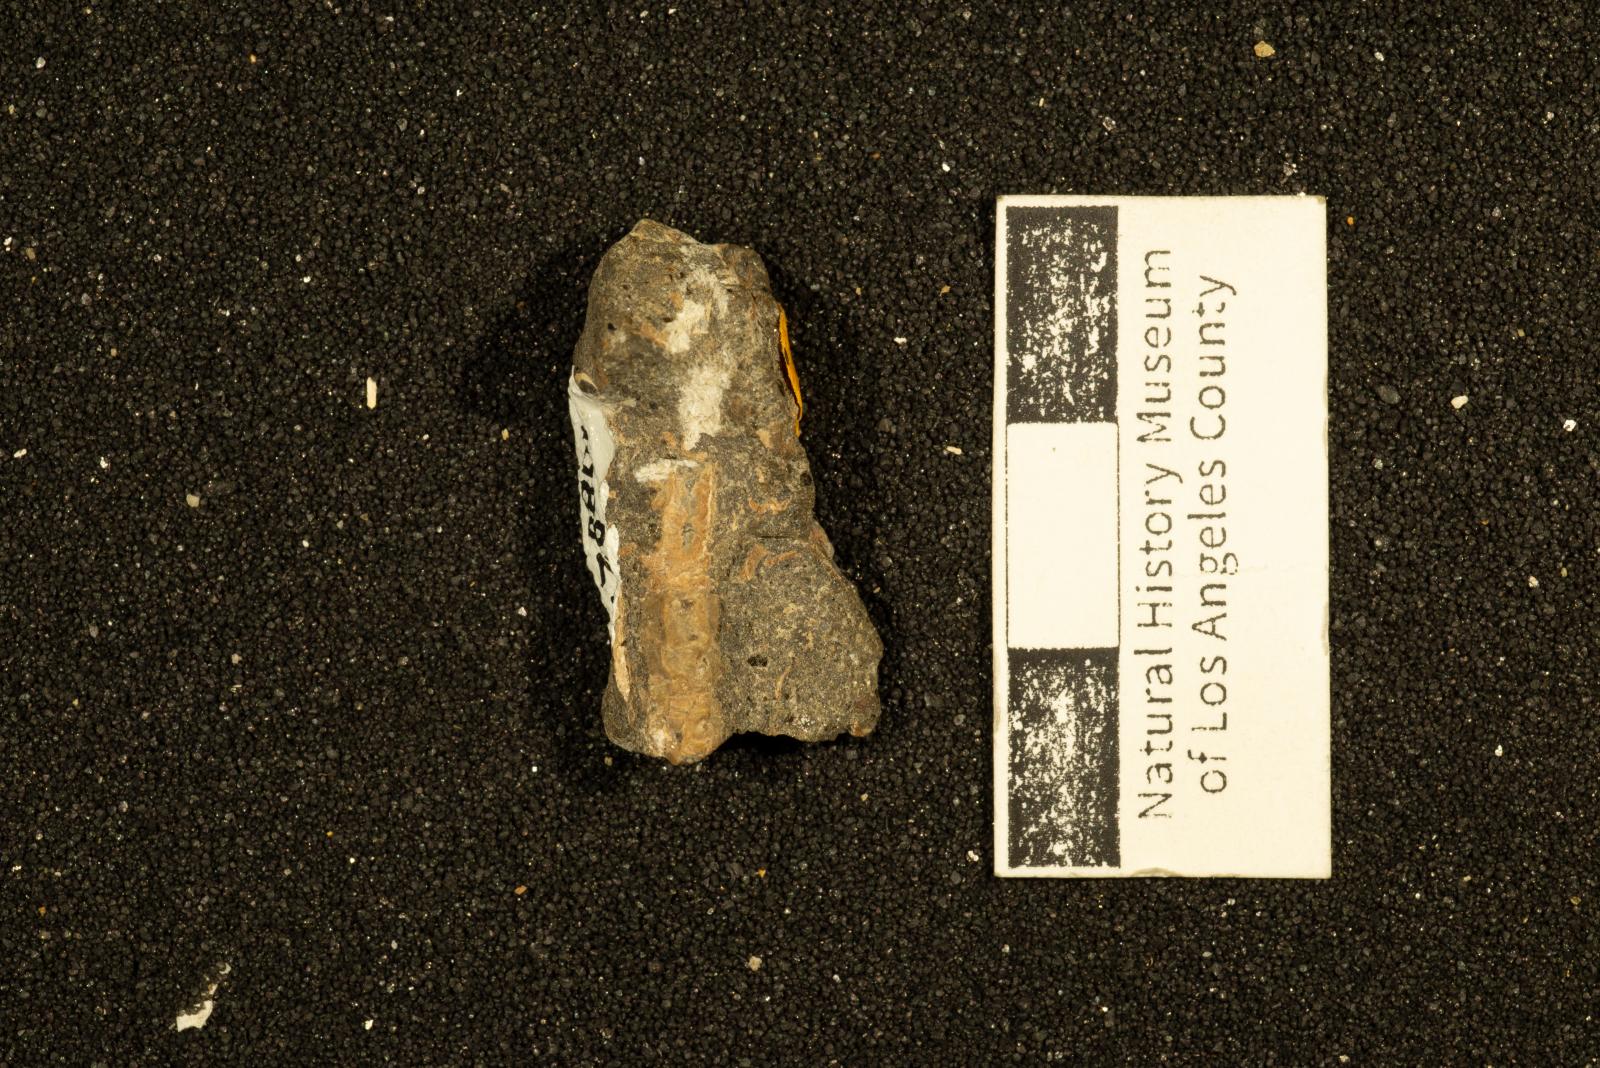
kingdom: Animalia
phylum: Annelida
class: Polychaeta
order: Sabellida
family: Serpulidae
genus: Hamulus
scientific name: Hamulus
